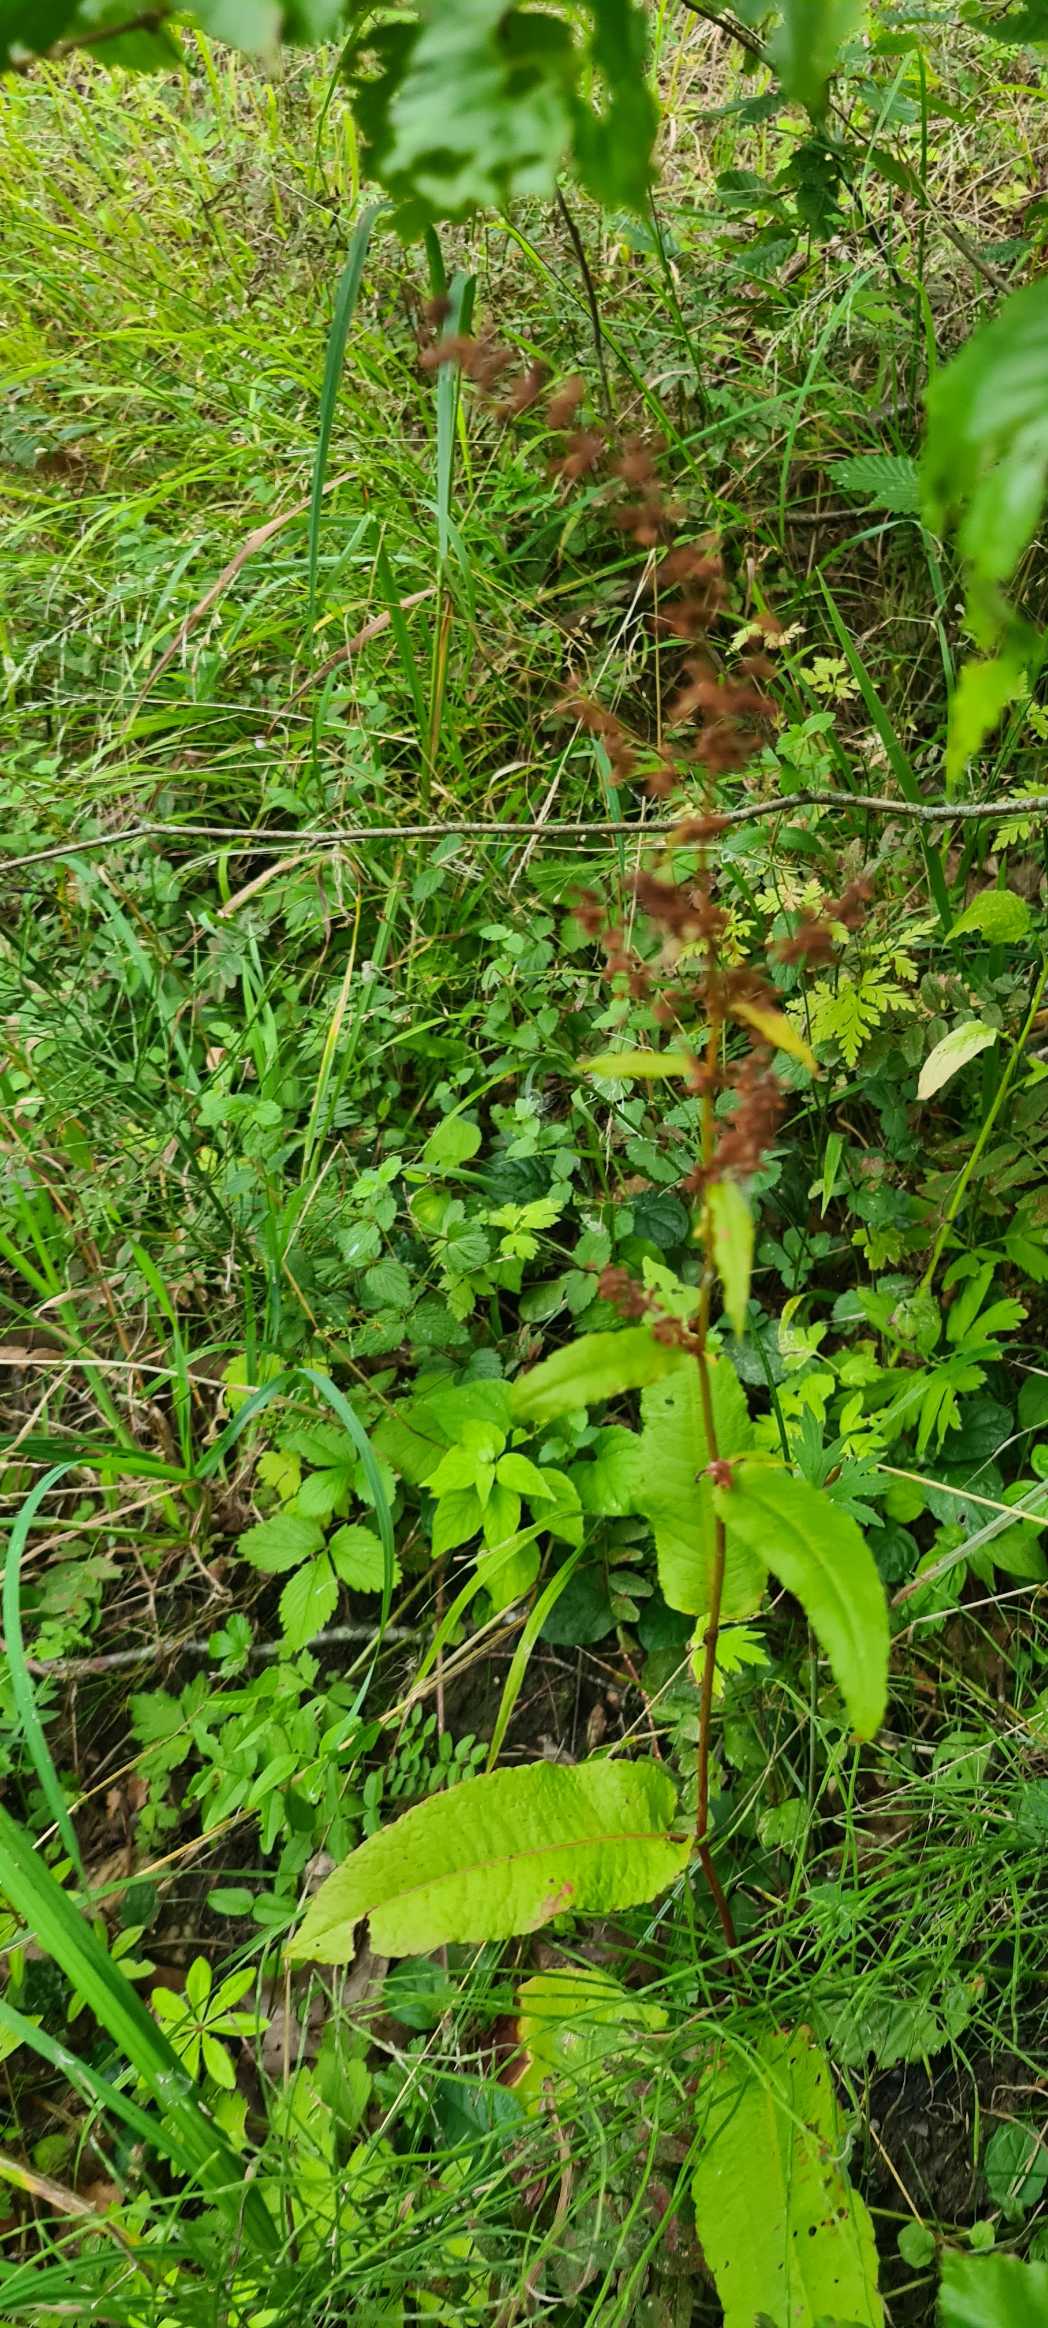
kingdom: Plantae
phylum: Tracheophyta
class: Magnoliopsida
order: Caryophyllales
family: Polygonaceae
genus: Rumex
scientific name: Rumex sanguineus
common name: Skov-skræppe
